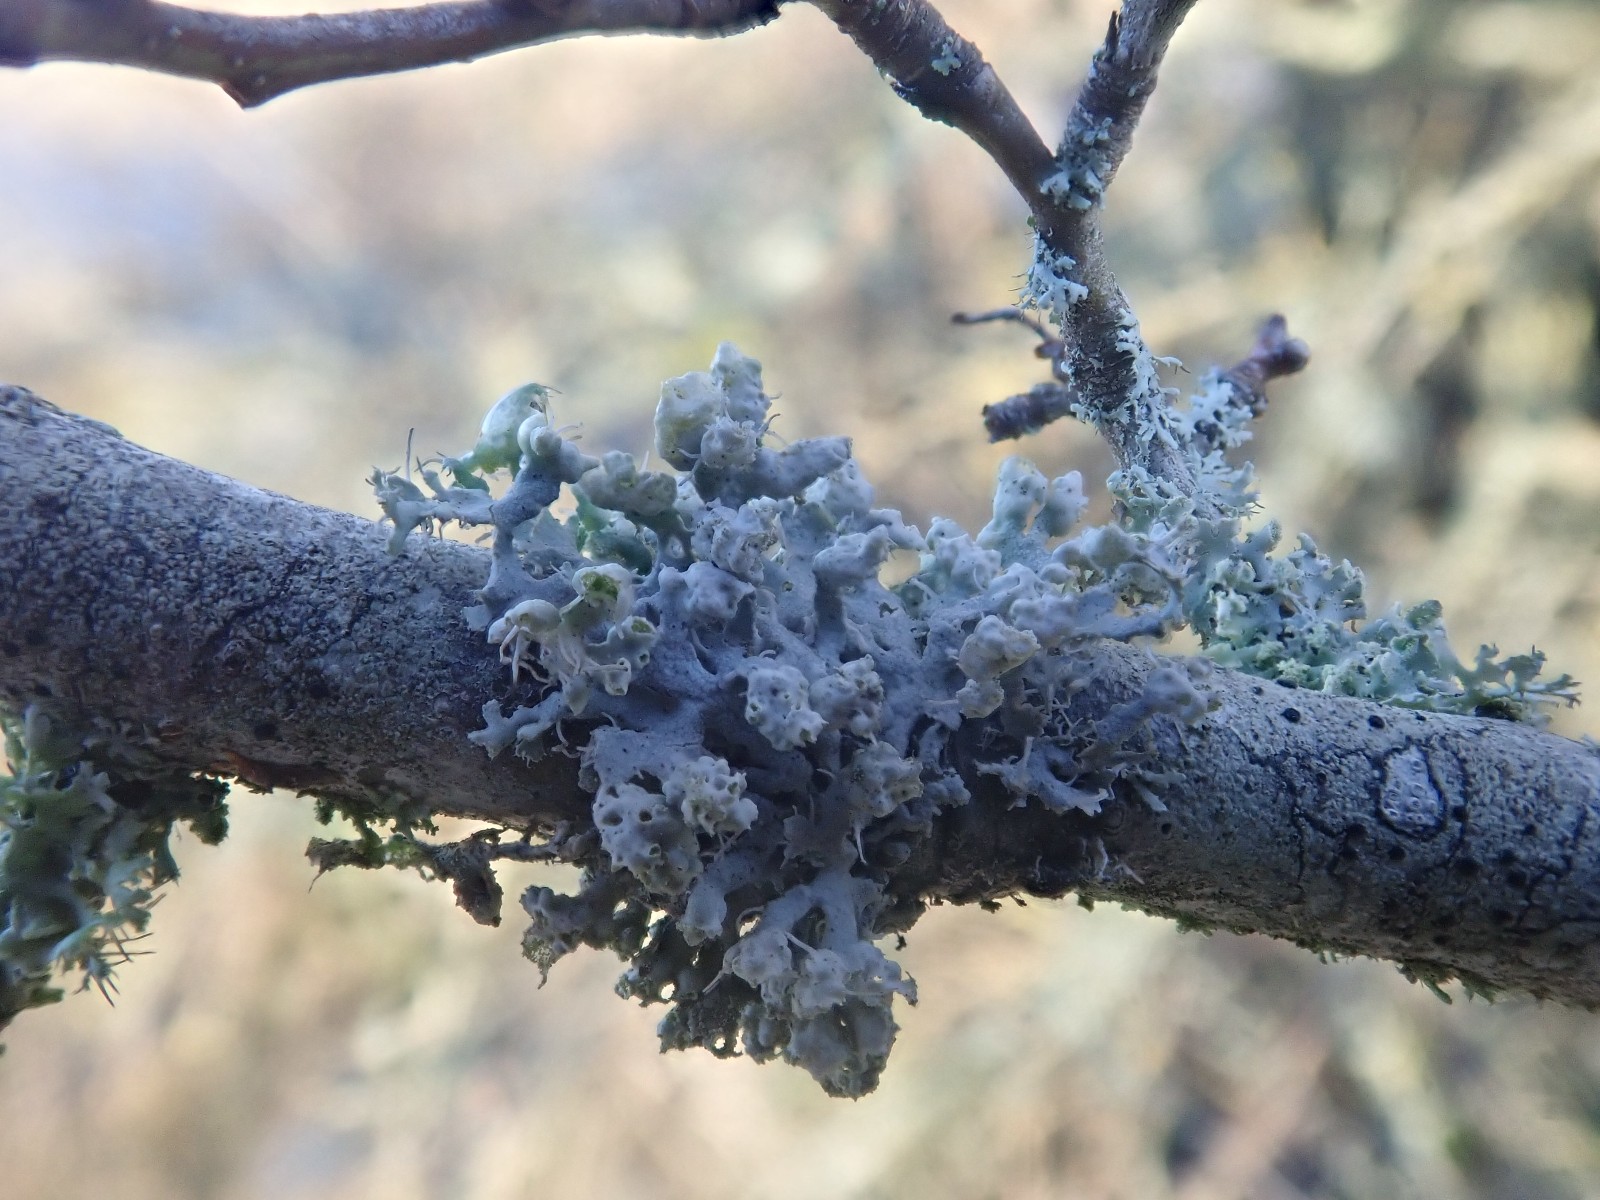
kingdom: Fungi
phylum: Ascomycota
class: Lecanoromycetes
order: Caliciales
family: Physciaceae
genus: Physcia
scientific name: Physcia adscendens
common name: hætte-rosetlav
